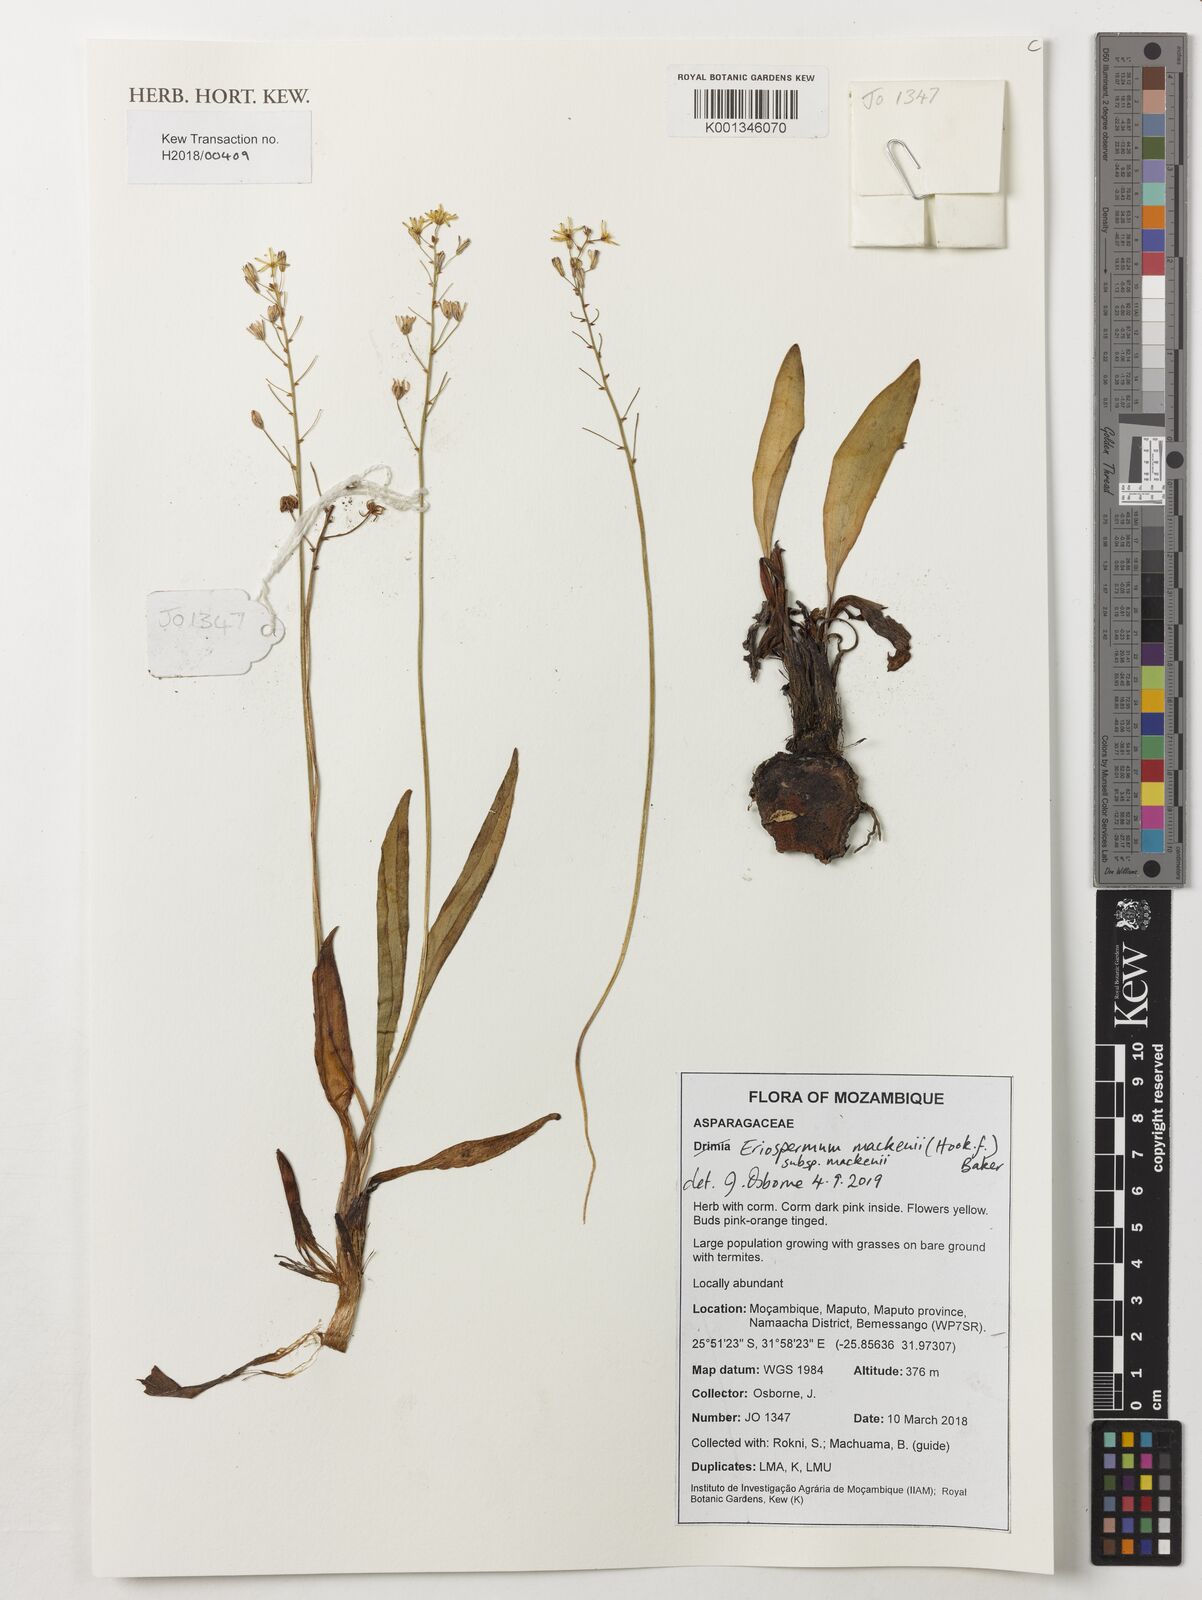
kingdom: Plantae
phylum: Tracheophyta
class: Liliopsida
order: Asparagales
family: Asparagaceae
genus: Eriospermum
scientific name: Eriospermum mackenii
